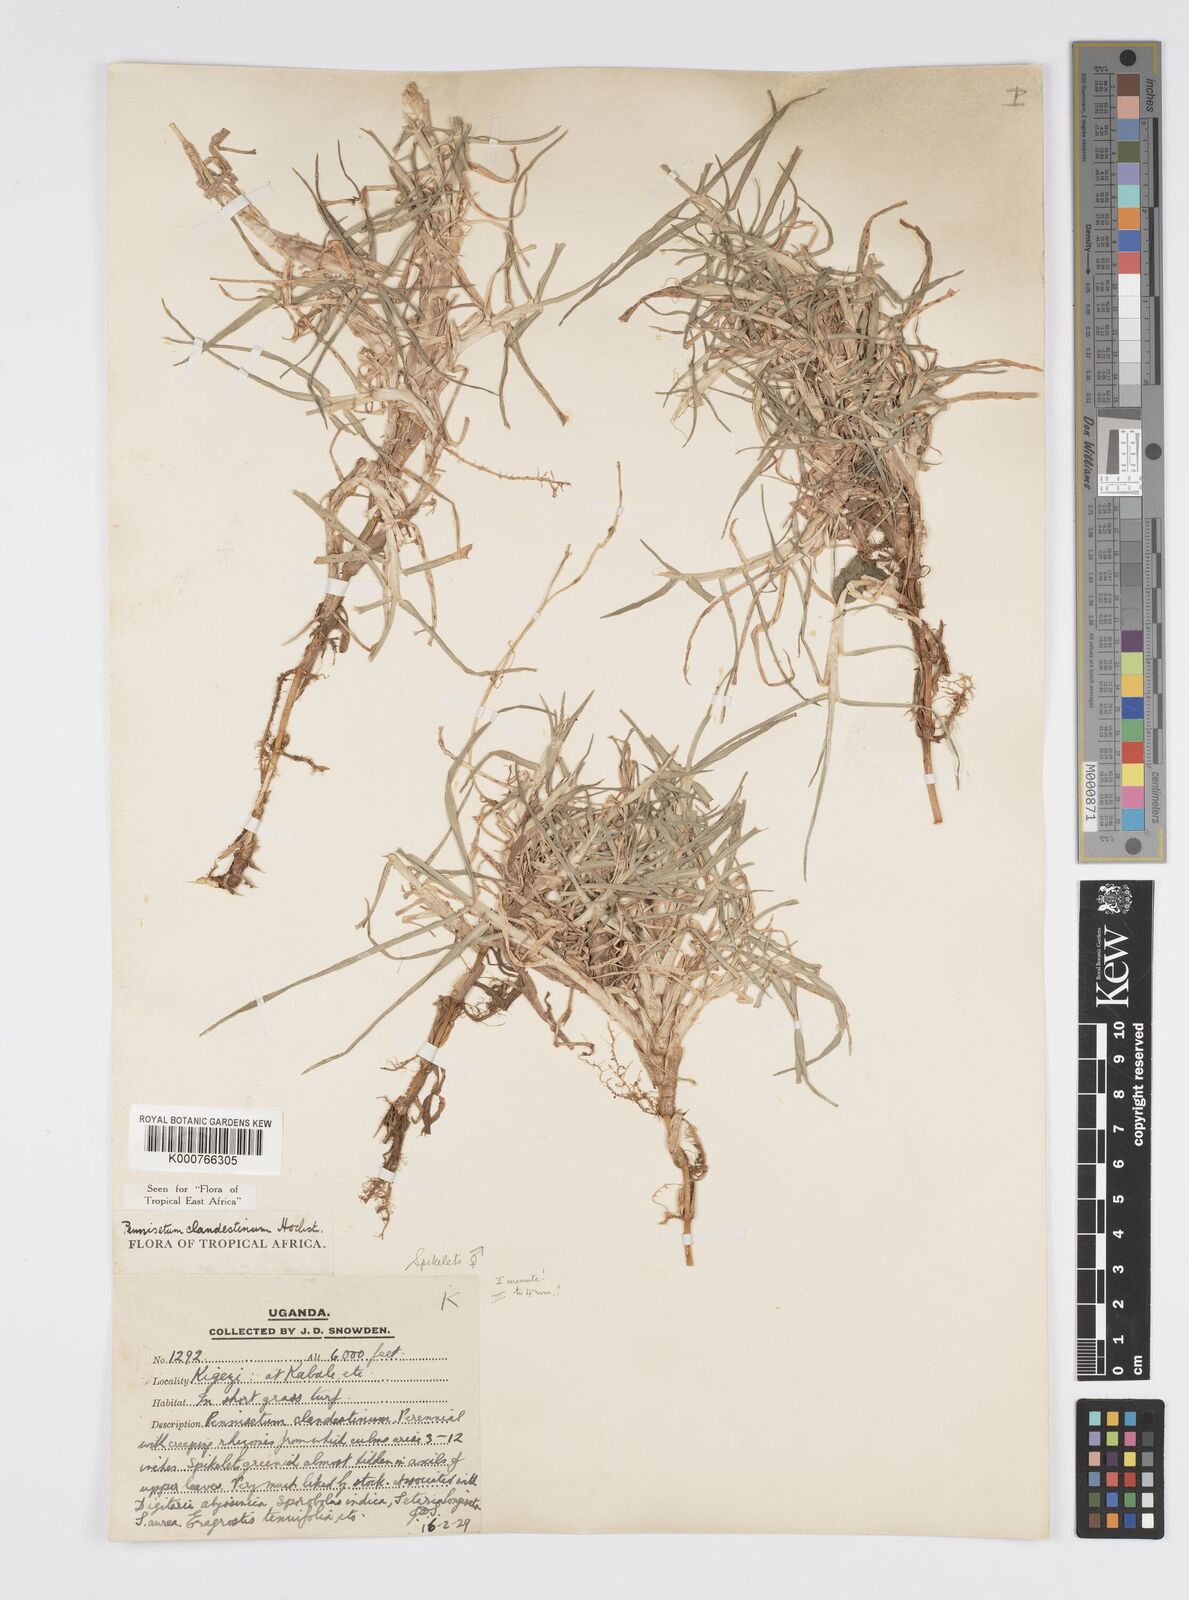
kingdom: Plantae
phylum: Tracheophyta
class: Liliopsida
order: Poales
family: Poaceae
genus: Cenchrus
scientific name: Cenchrus clandestinus
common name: Kikuyugrass
